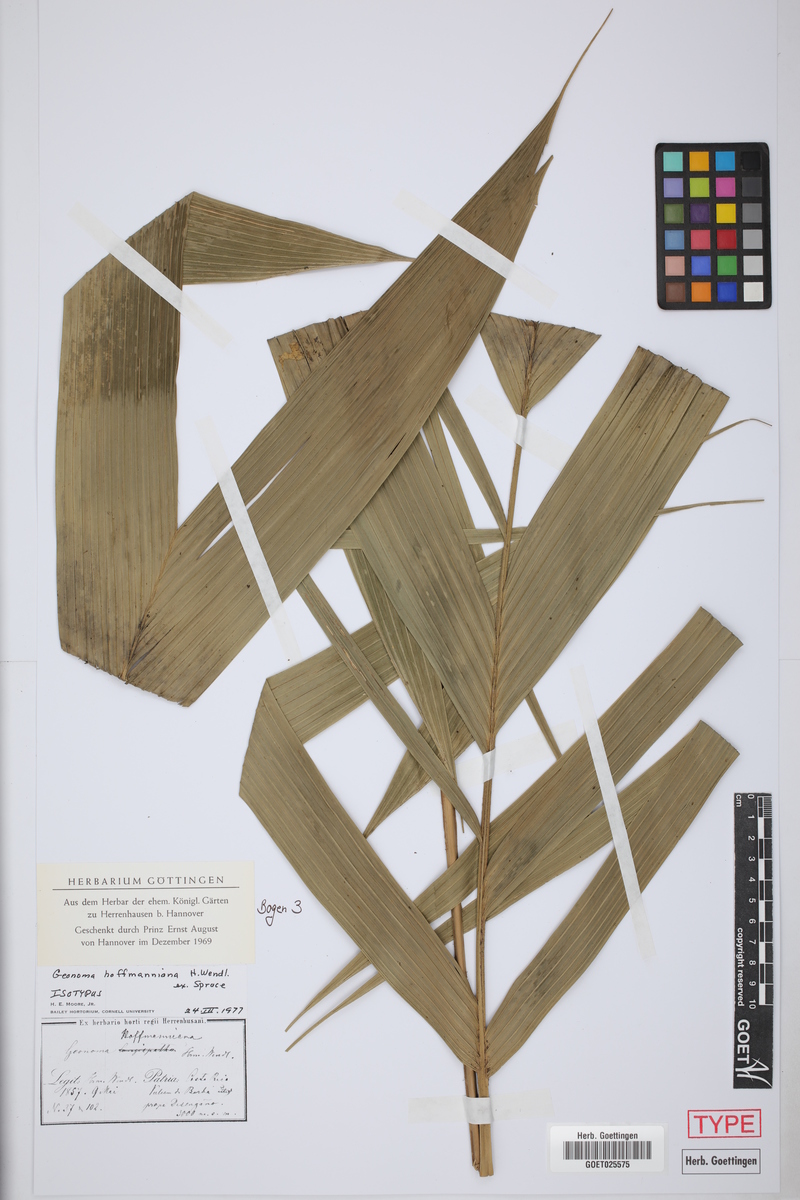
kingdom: Plantae
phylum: Tracheophyta
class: Liliopsida
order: Arecales
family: Arecaceae
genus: Geonoma
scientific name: Geonoma orbignyana
